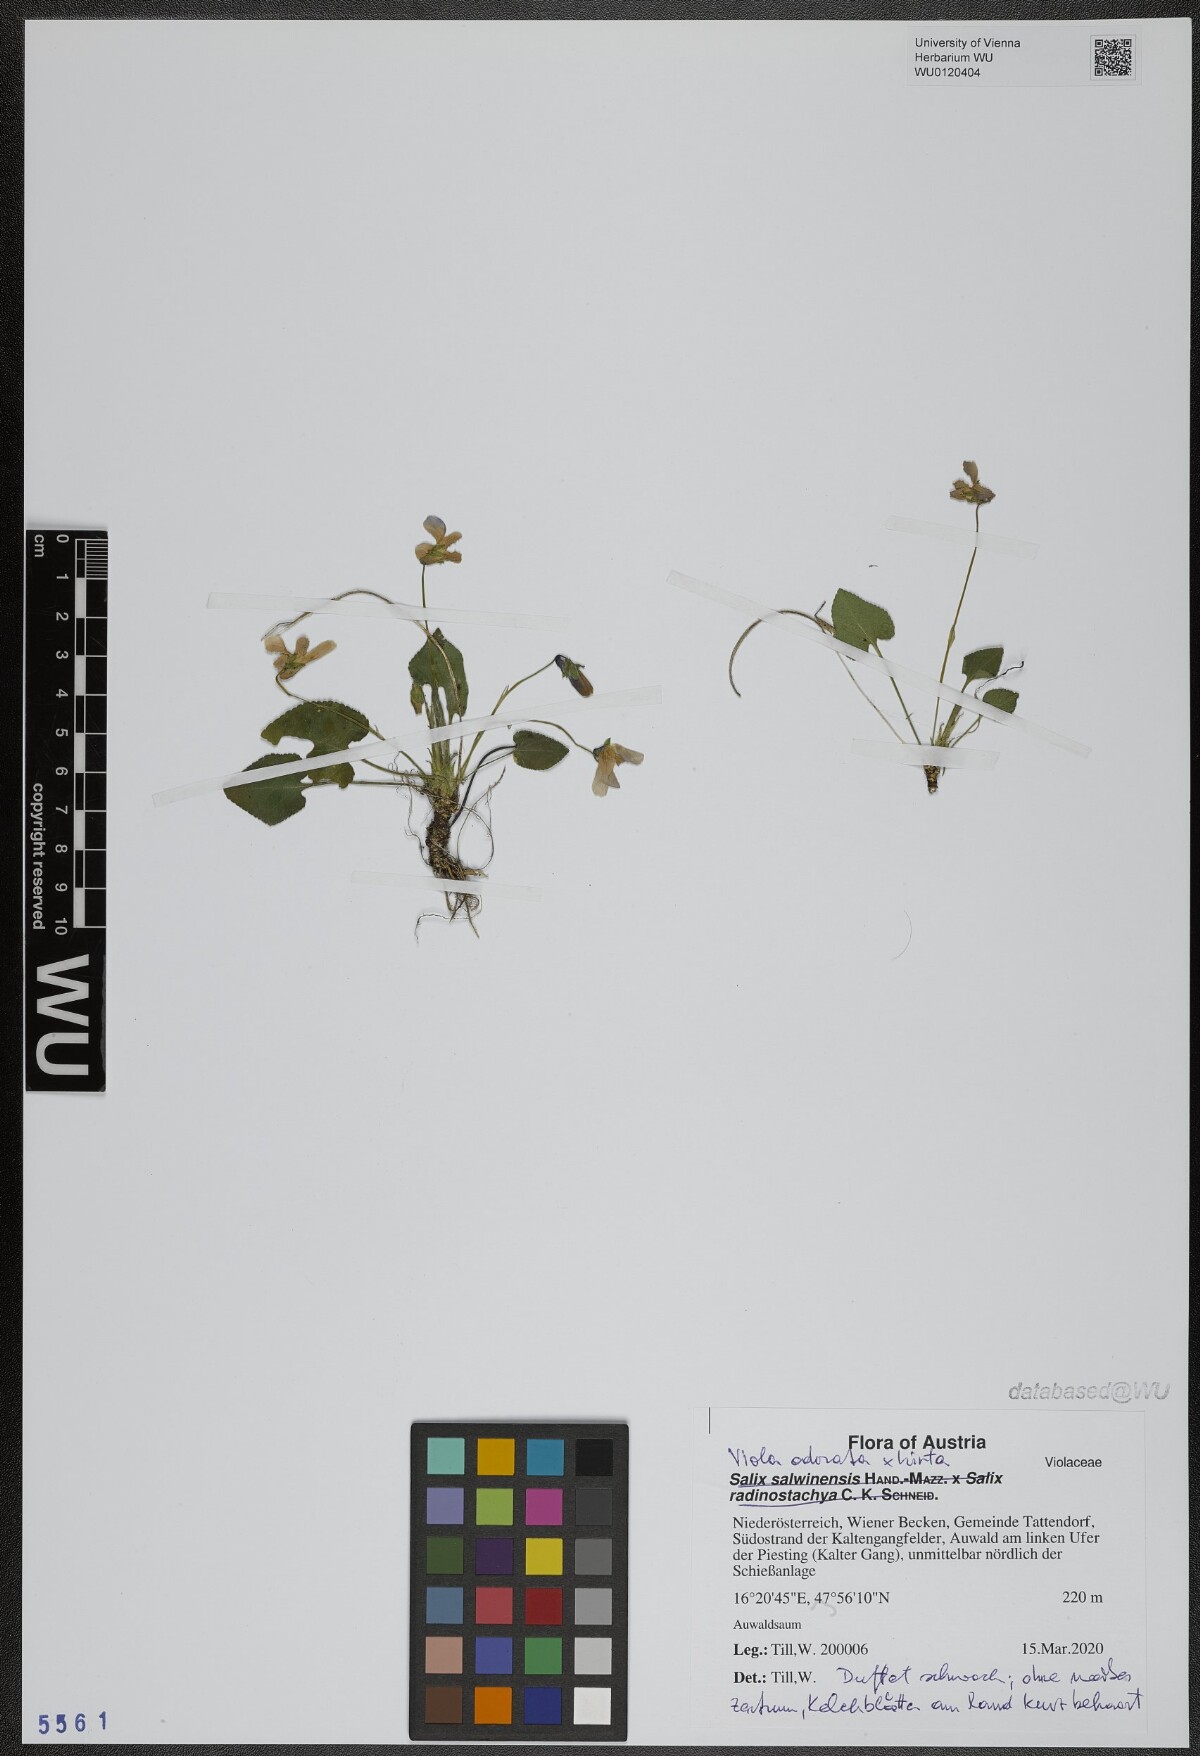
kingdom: Plantae
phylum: Tracheophyta
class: Magnoliopsida
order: Malpighiales
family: Violaceae
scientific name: Violaceae
